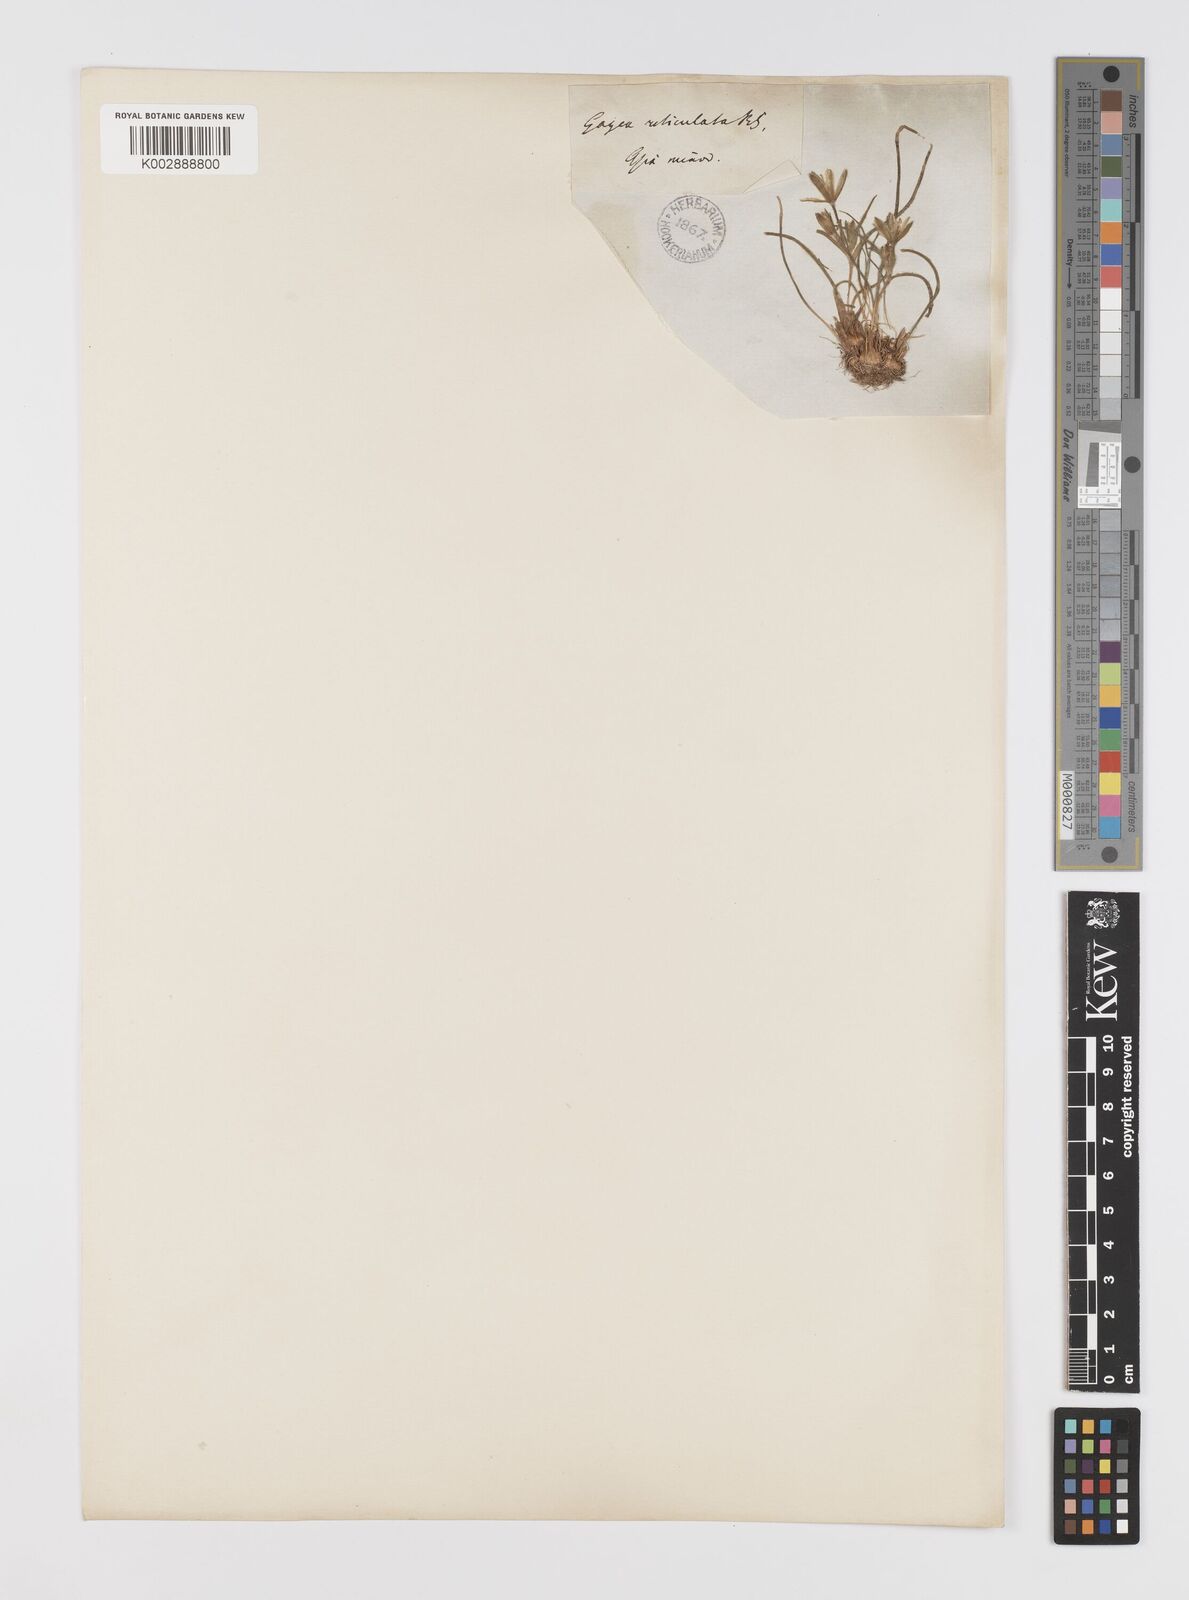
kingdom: Plantae
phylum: Tracheophyta
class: Liliopsida
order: Liliales
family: Liliaceae
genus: Gagea
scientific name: Gagea
